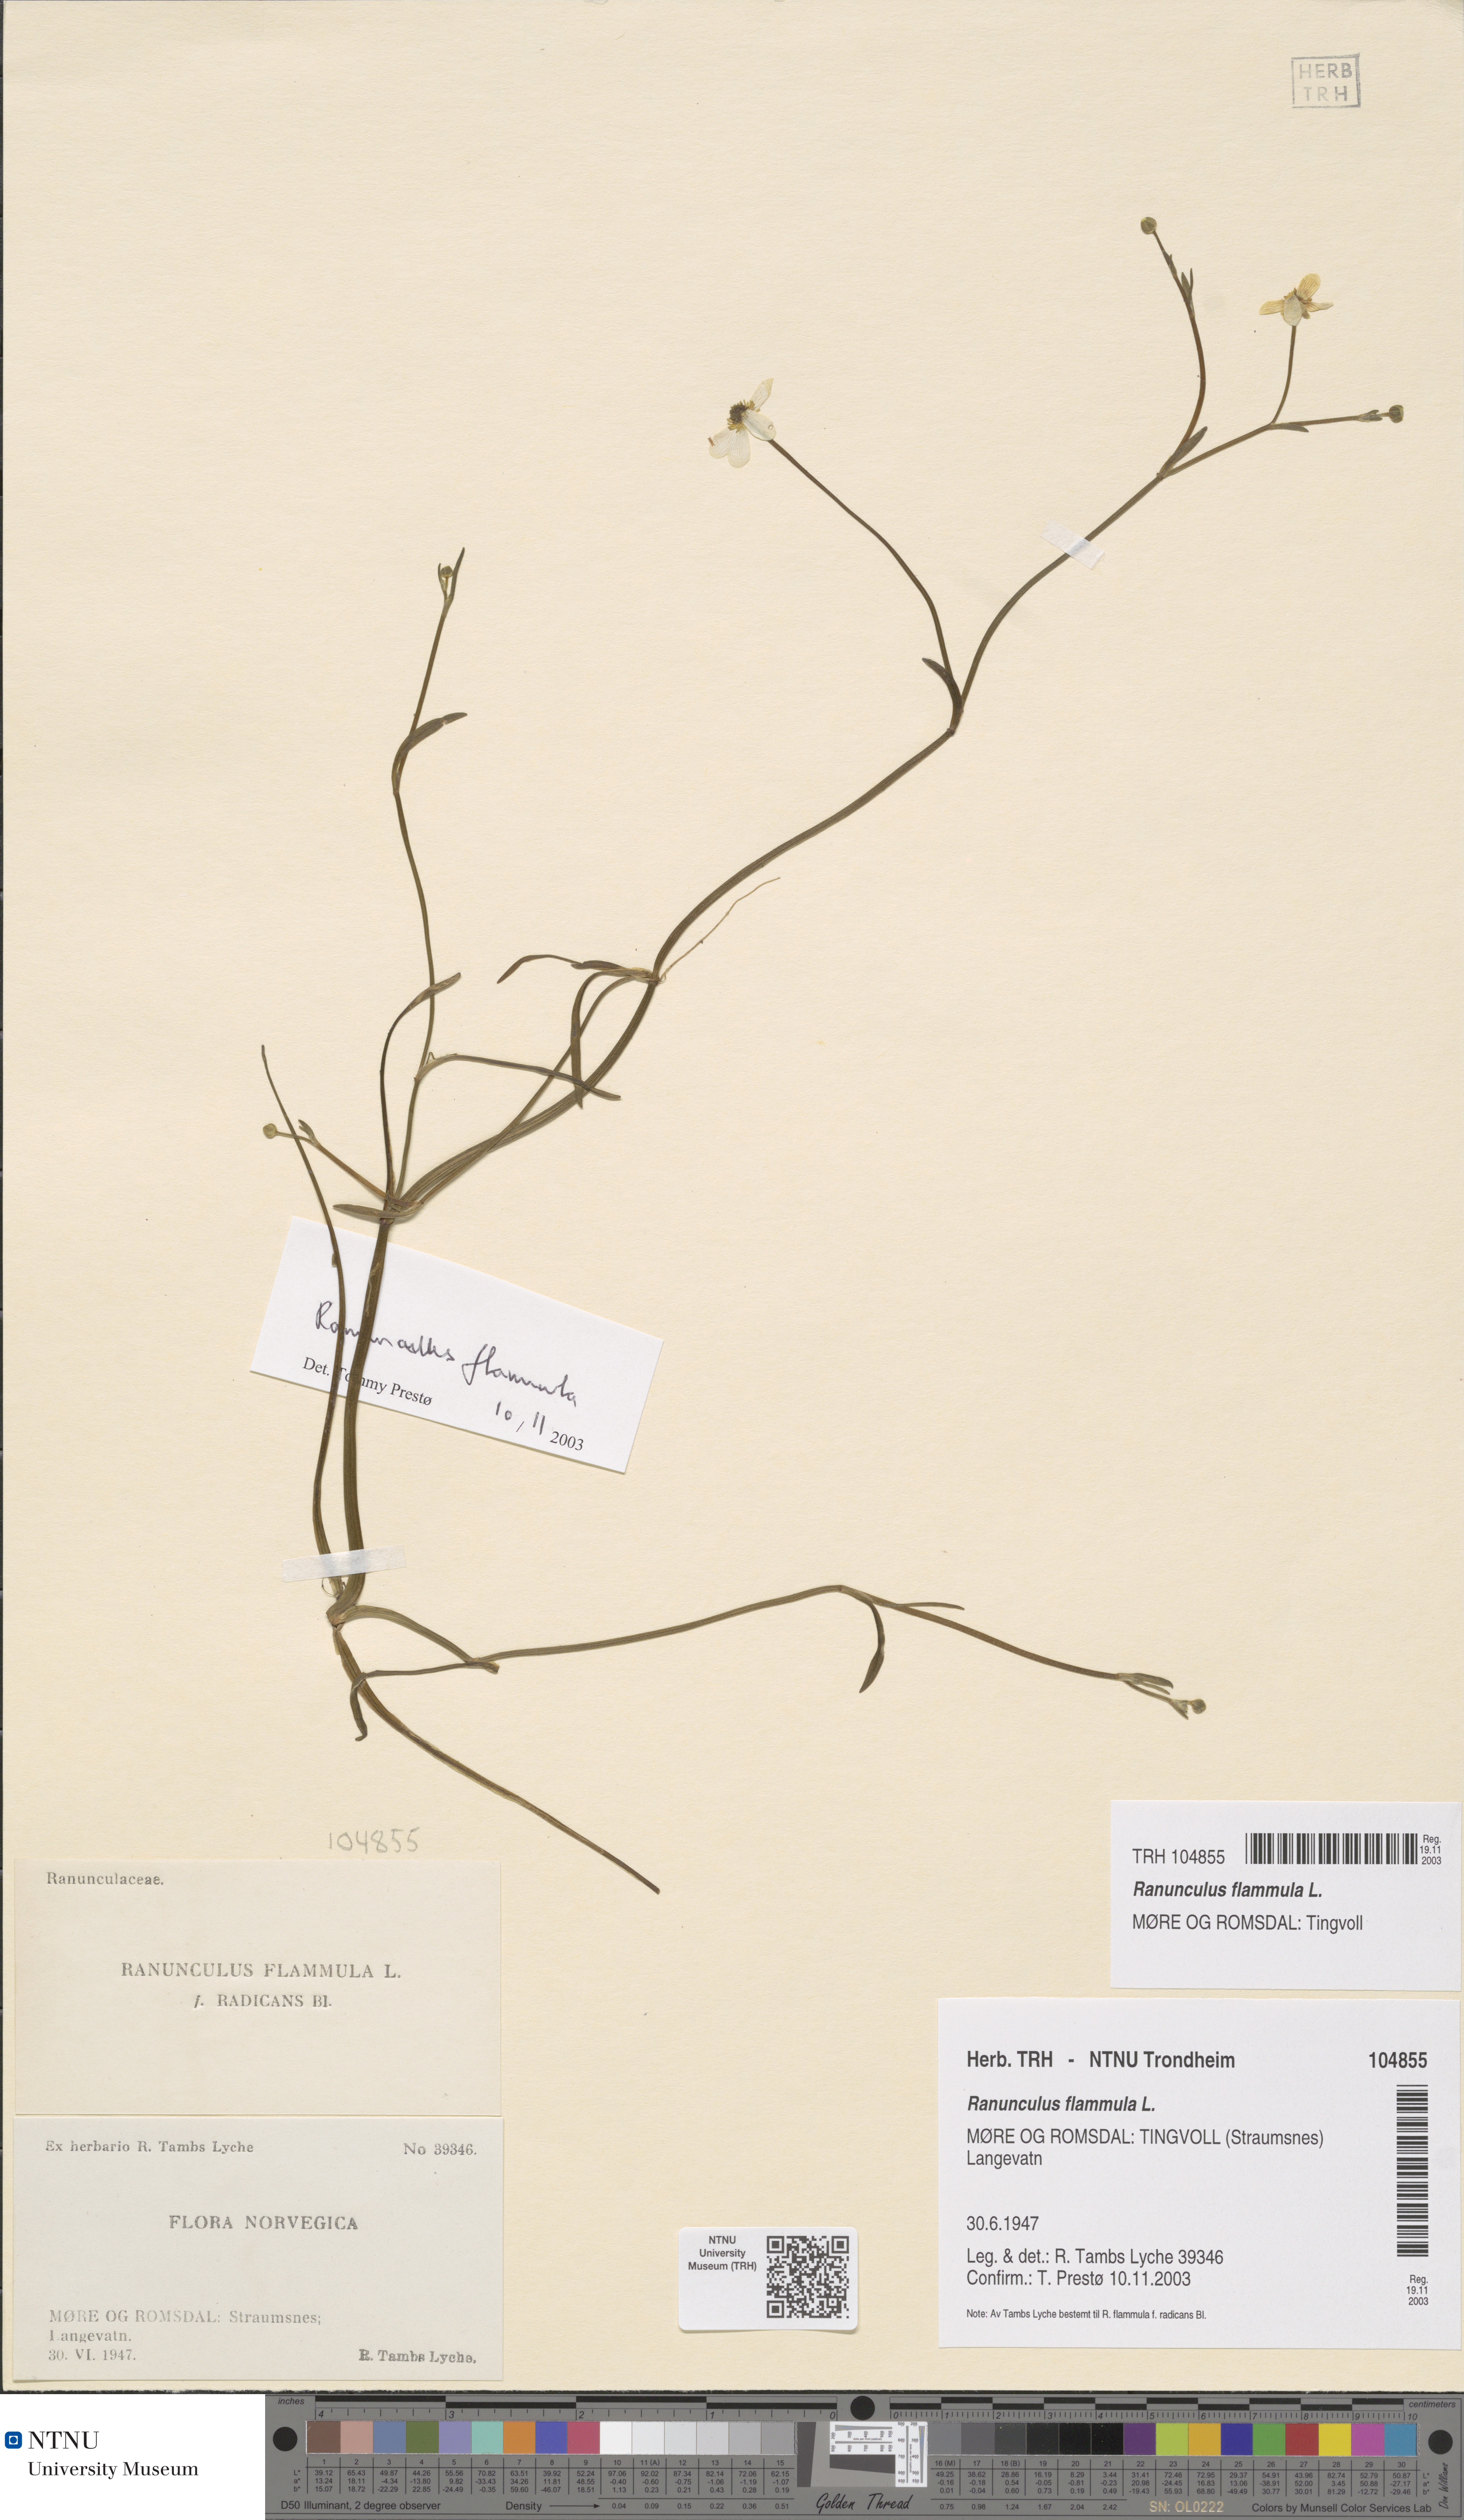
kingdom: Plantae
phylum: Tracheophyta
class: Magnoliopsida
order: Ranunculales
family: Ranunculaceae
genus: Ranunculus
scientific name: Ranunculus flammula
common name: Lesser spearwort
